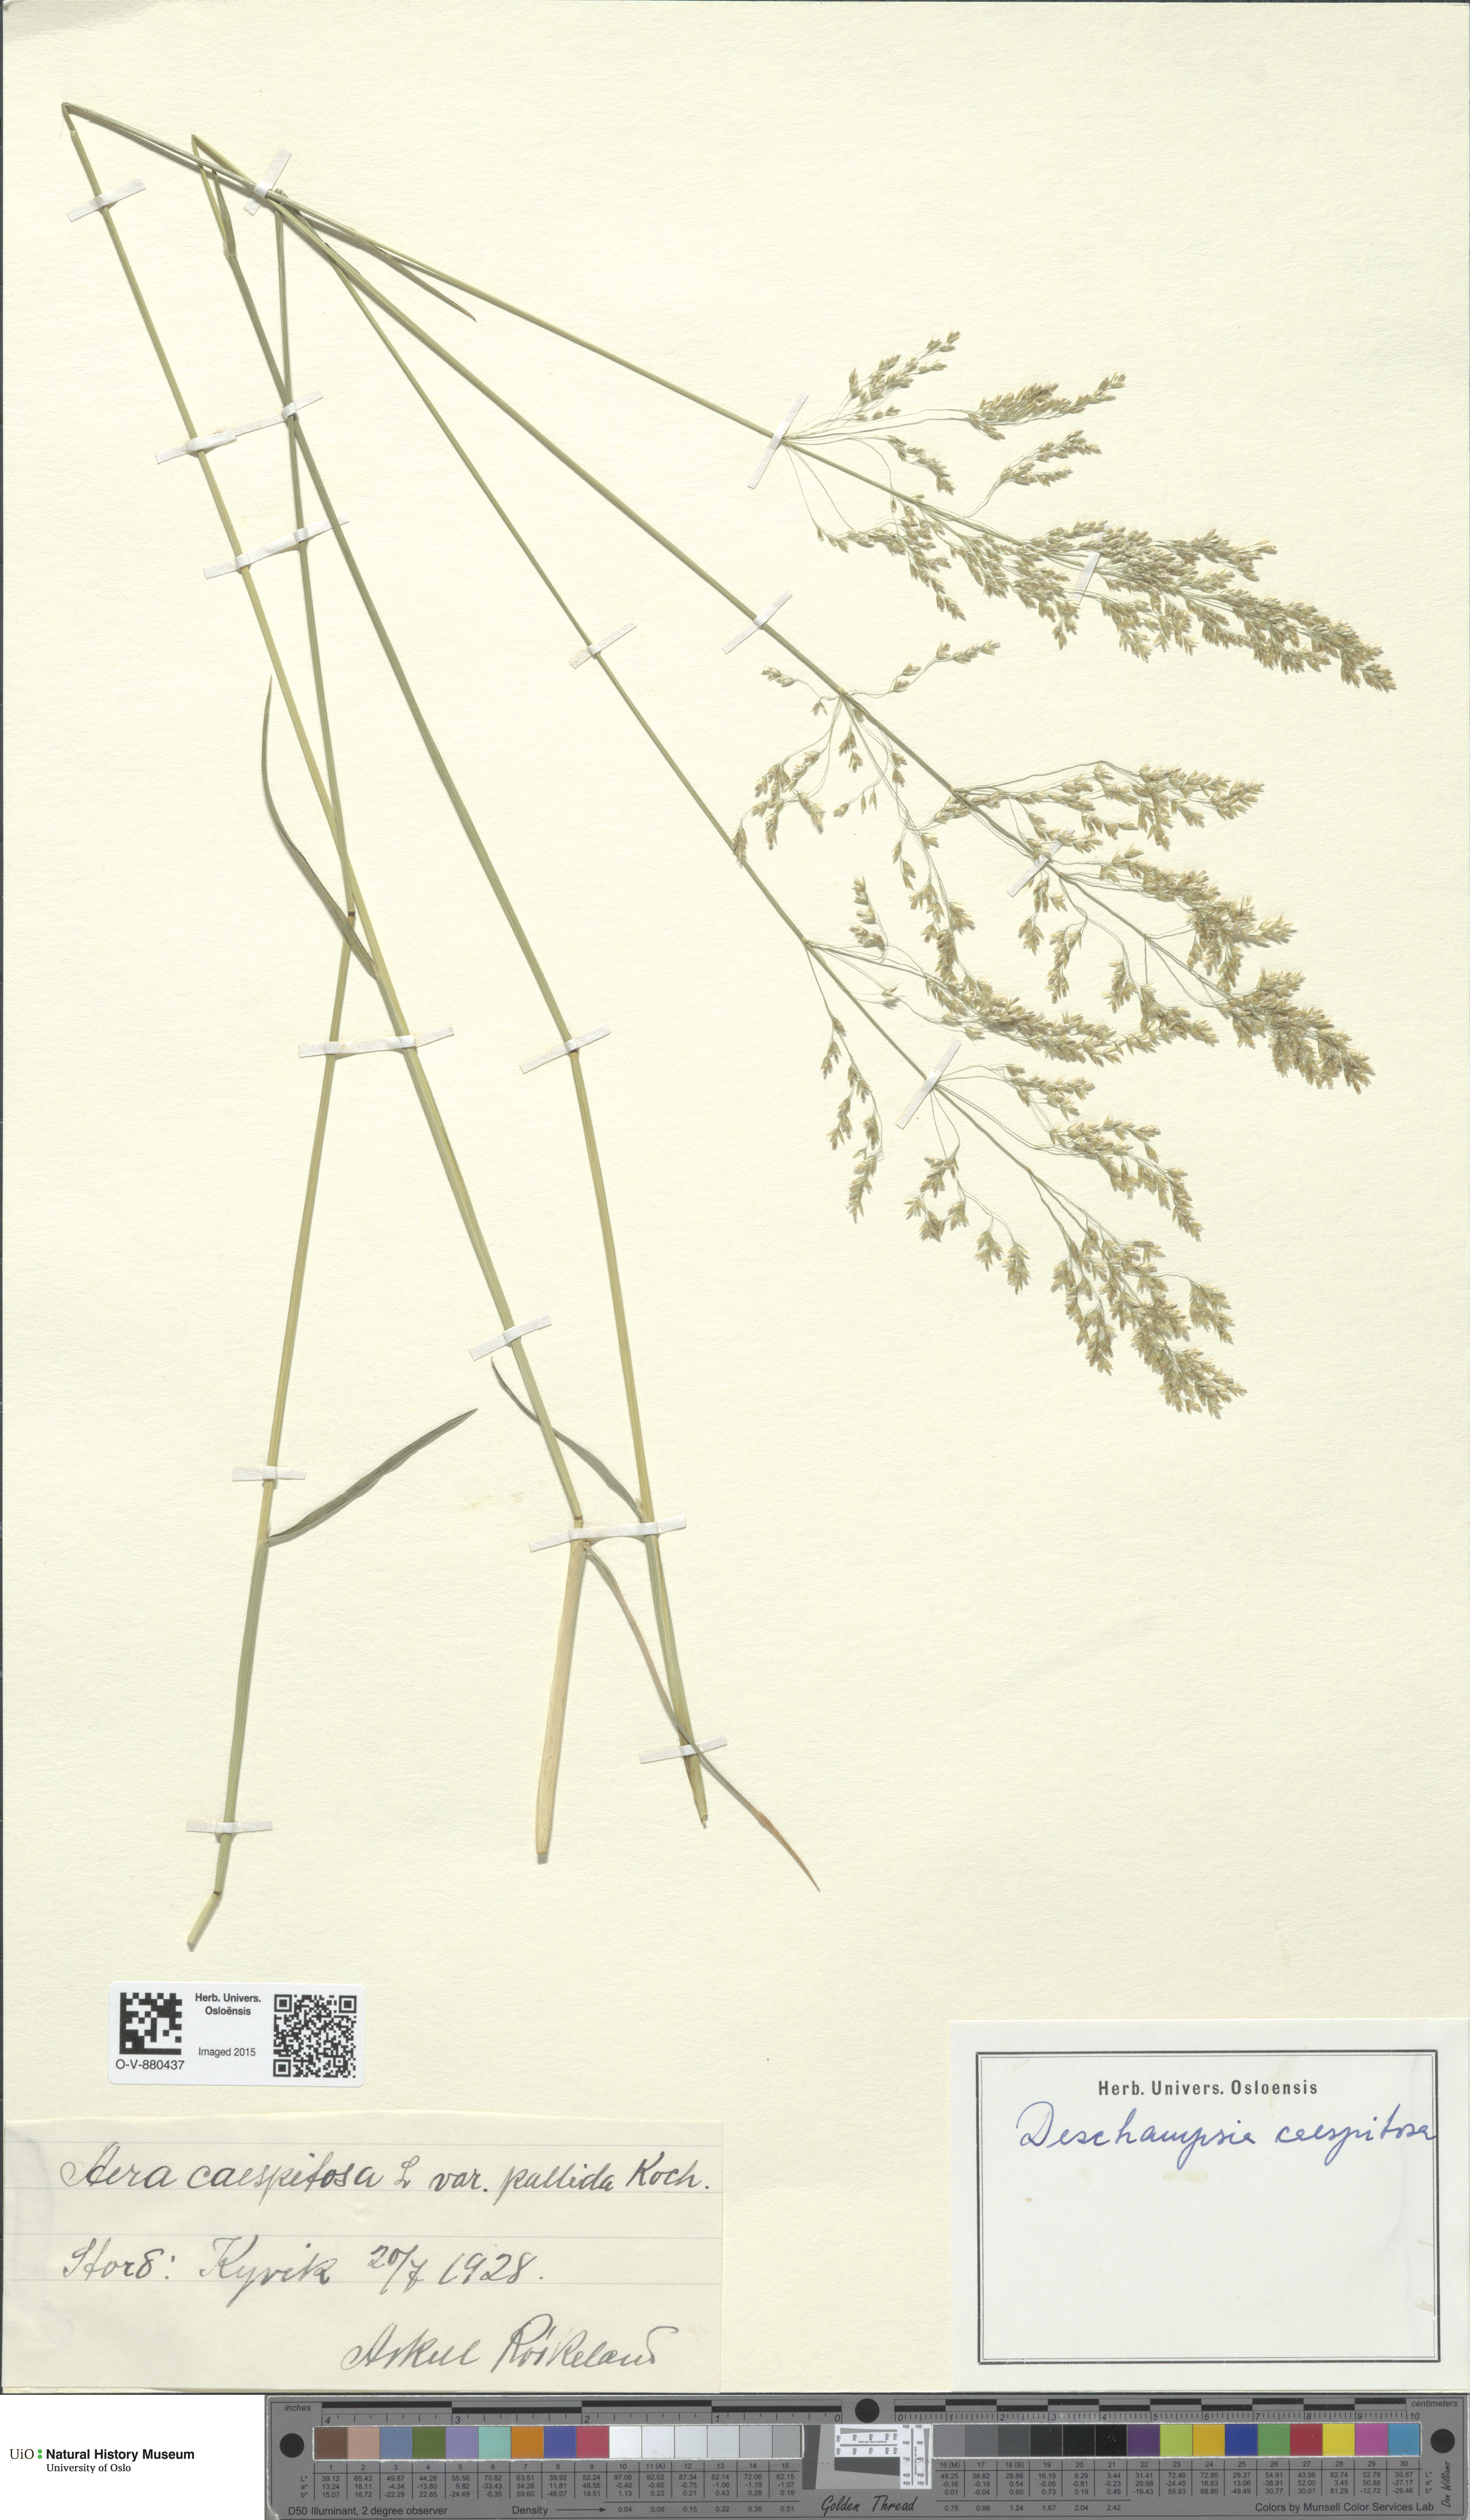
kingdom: Plantae
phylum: Tracheophyta
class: Liliopsida
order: Poales
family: Poaceae
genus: Deschampsia
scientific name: Deschampsia cespitosa
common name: Tufted hair-grass
